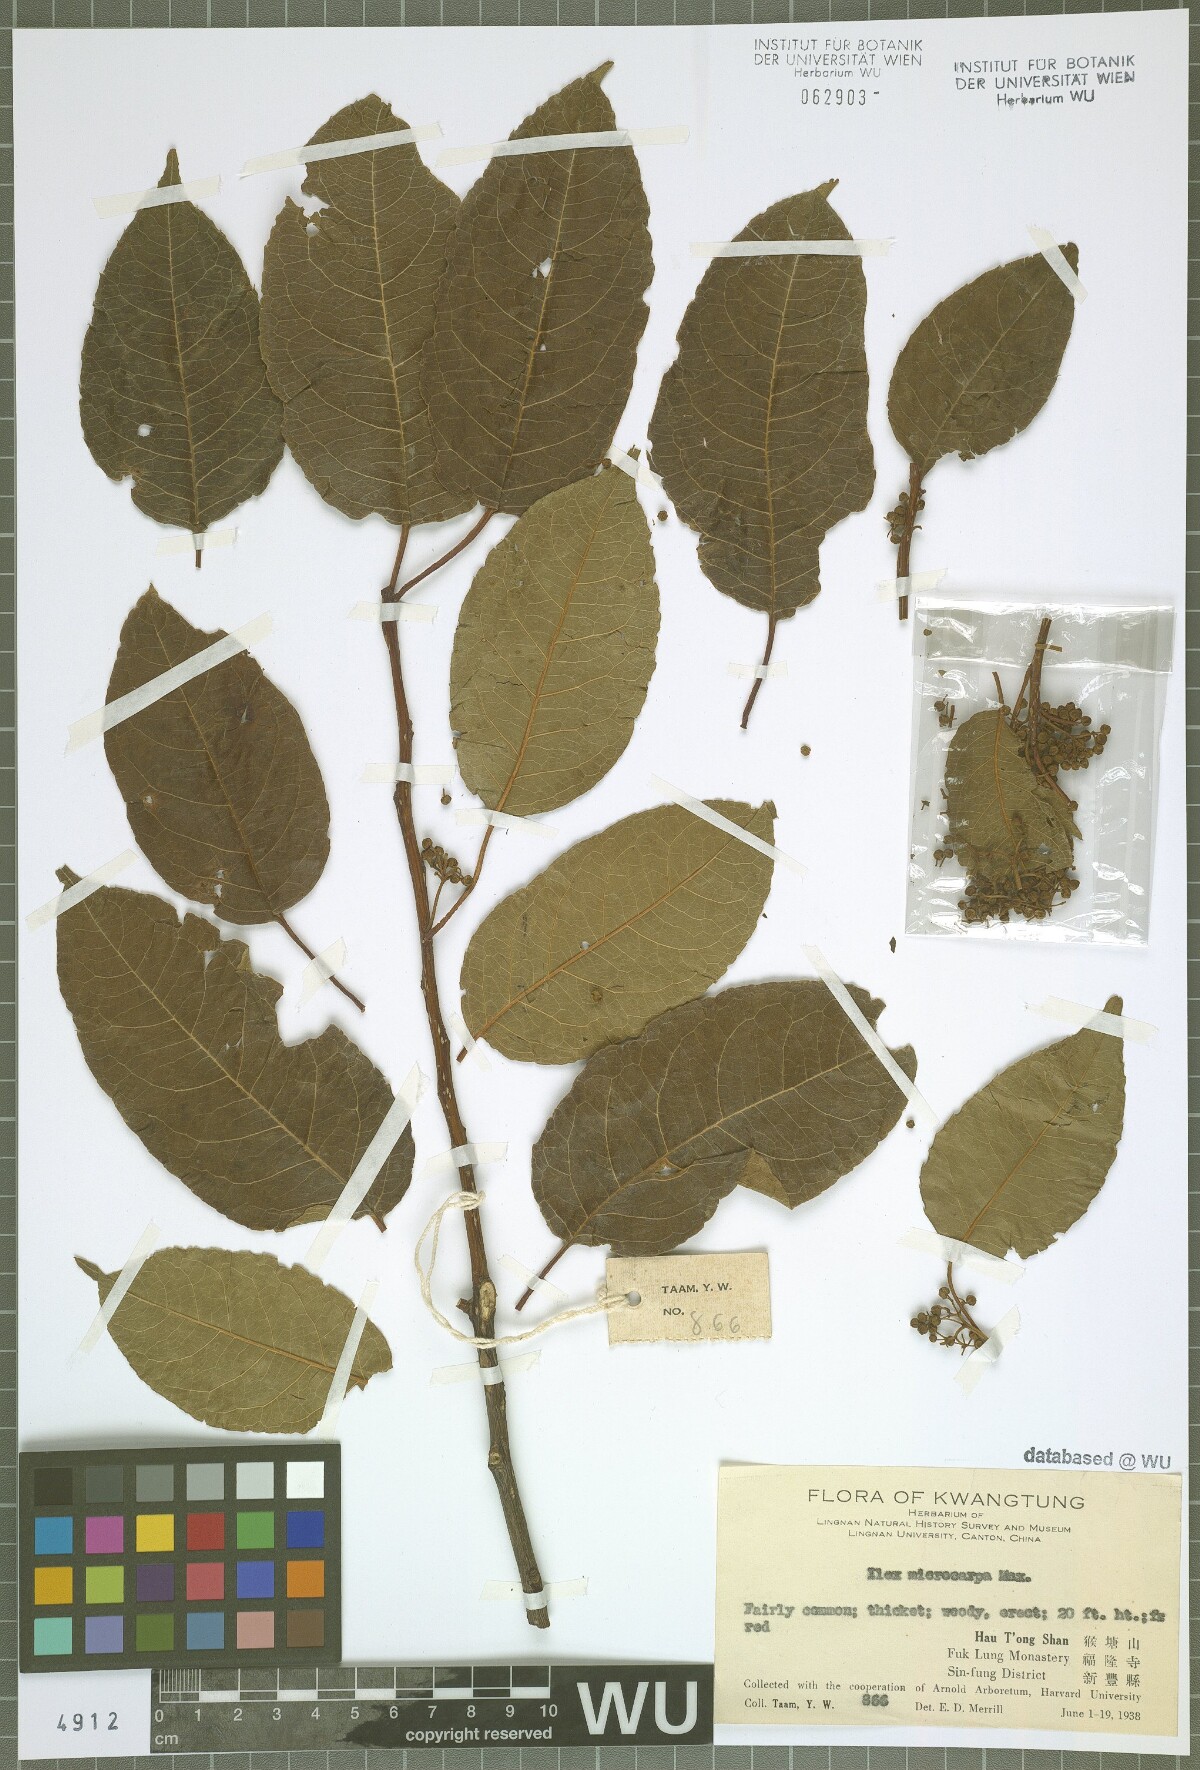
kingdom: Plantae
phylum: Tracheophyta
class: Magnoliopsida
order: Aquifoliales
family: Aquifoliaceae
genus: Ilex
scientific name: Ilex rotunda
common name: Kurogane holly
